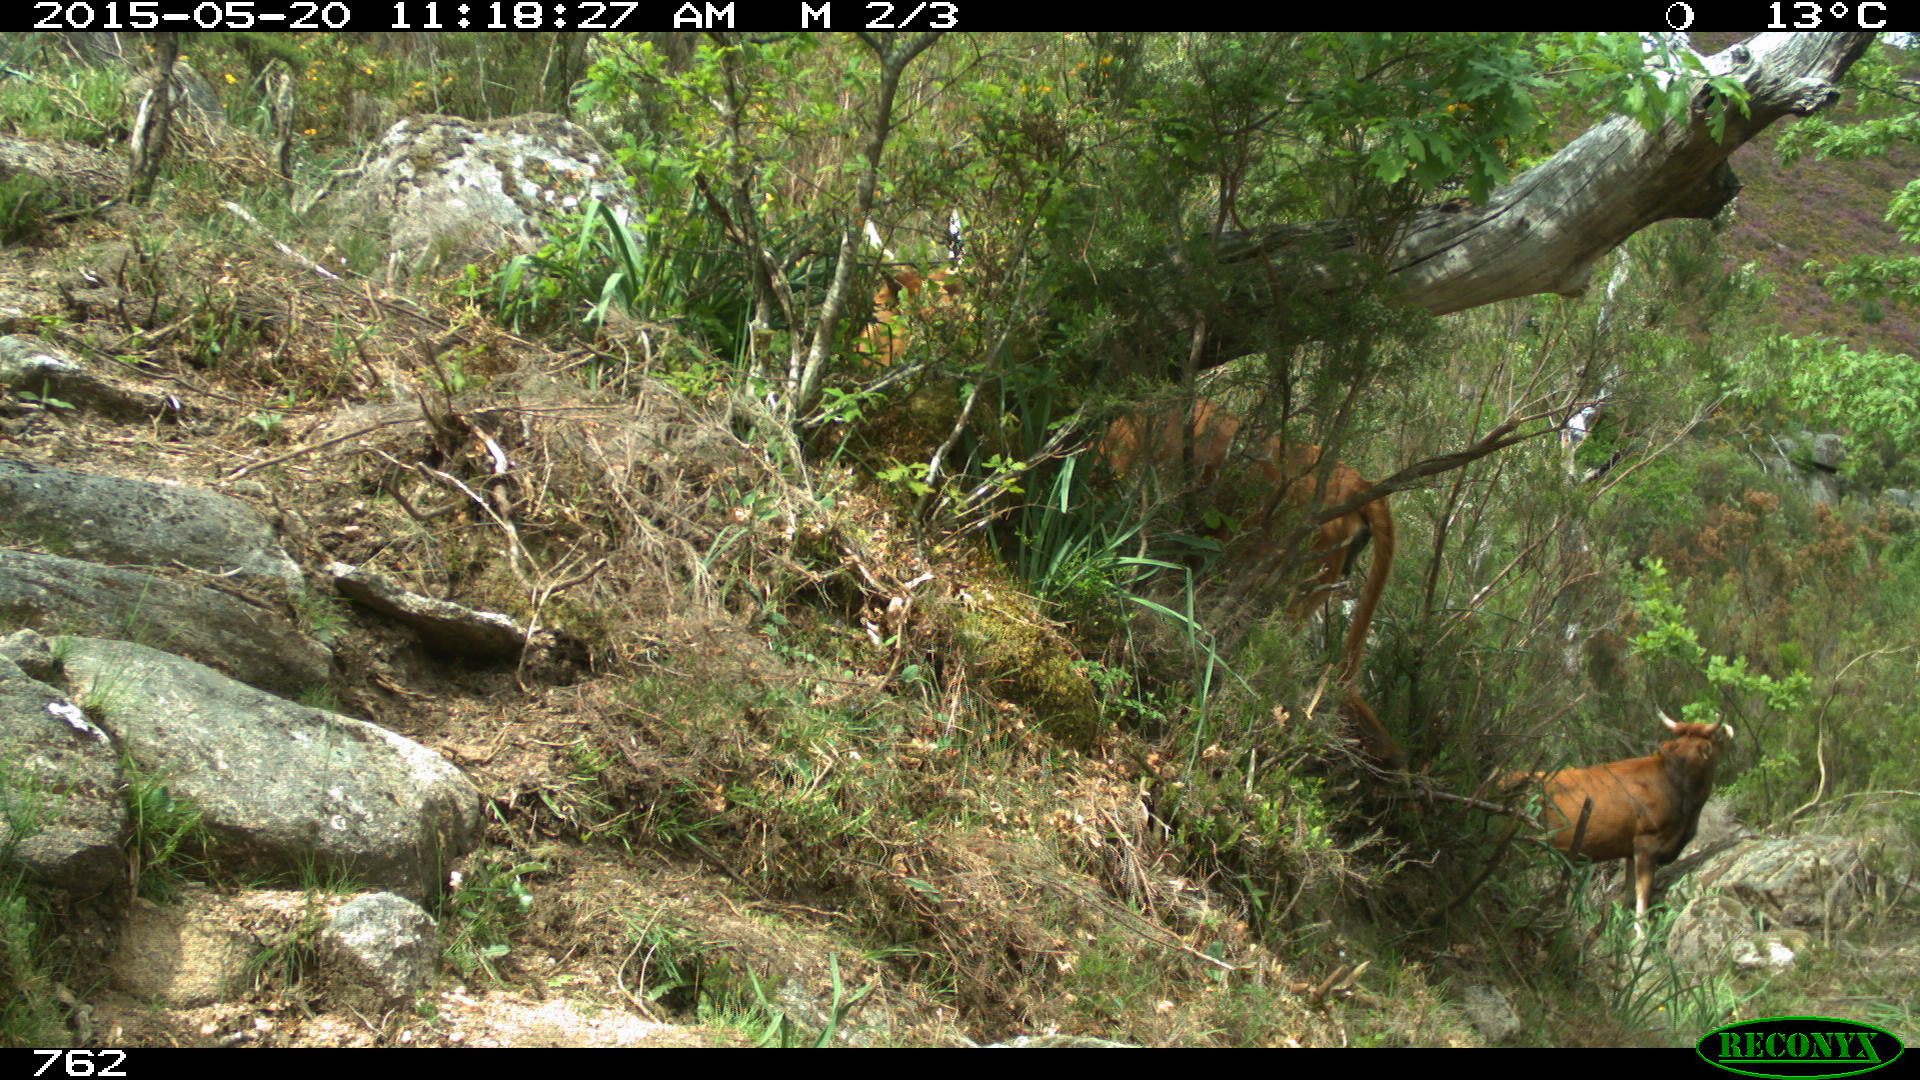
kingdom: Animalia
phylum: Chordata
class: Mammalia
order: Artiodactyla
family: Bovidae
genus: Bos
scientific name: Bos taurus
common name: Domesticated cattle
